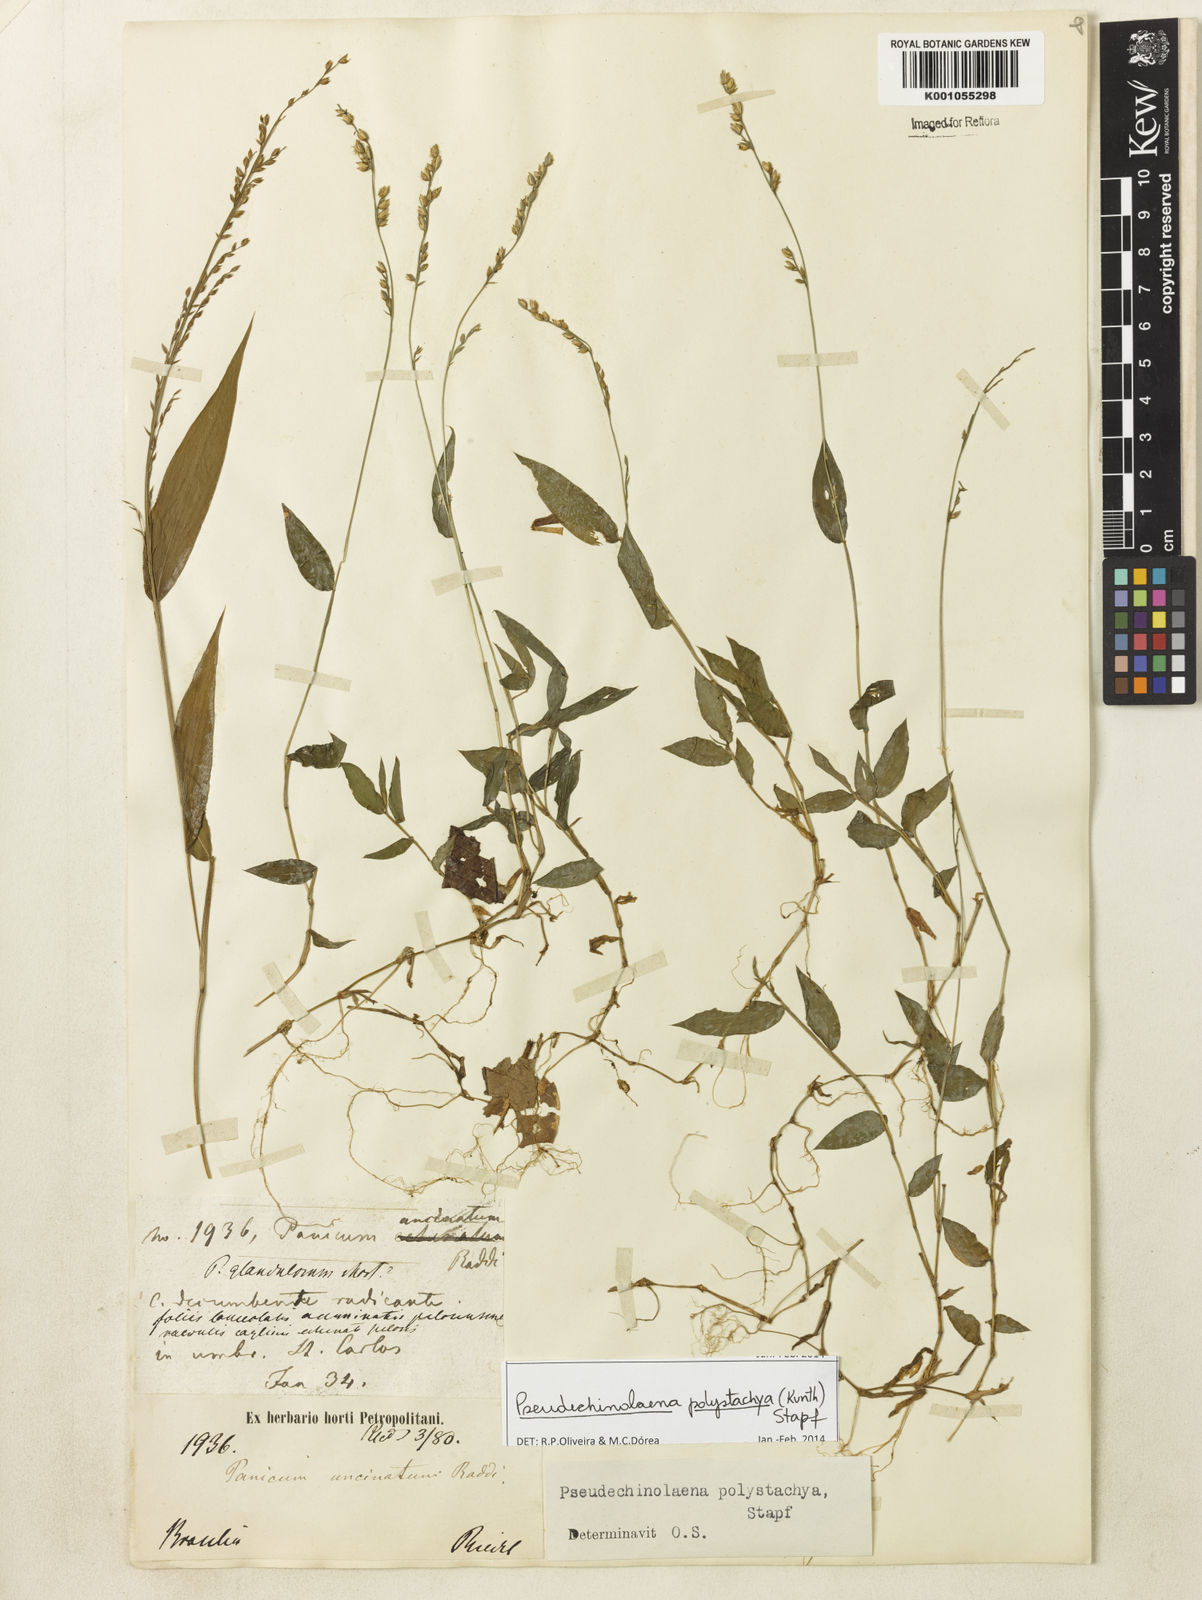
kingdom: Plantae
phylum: Tracheophyta
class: Liliopsida
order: Poales
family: Poaceae
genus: Pseudechinolaena
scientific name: Pseudechinolaena polystachya
